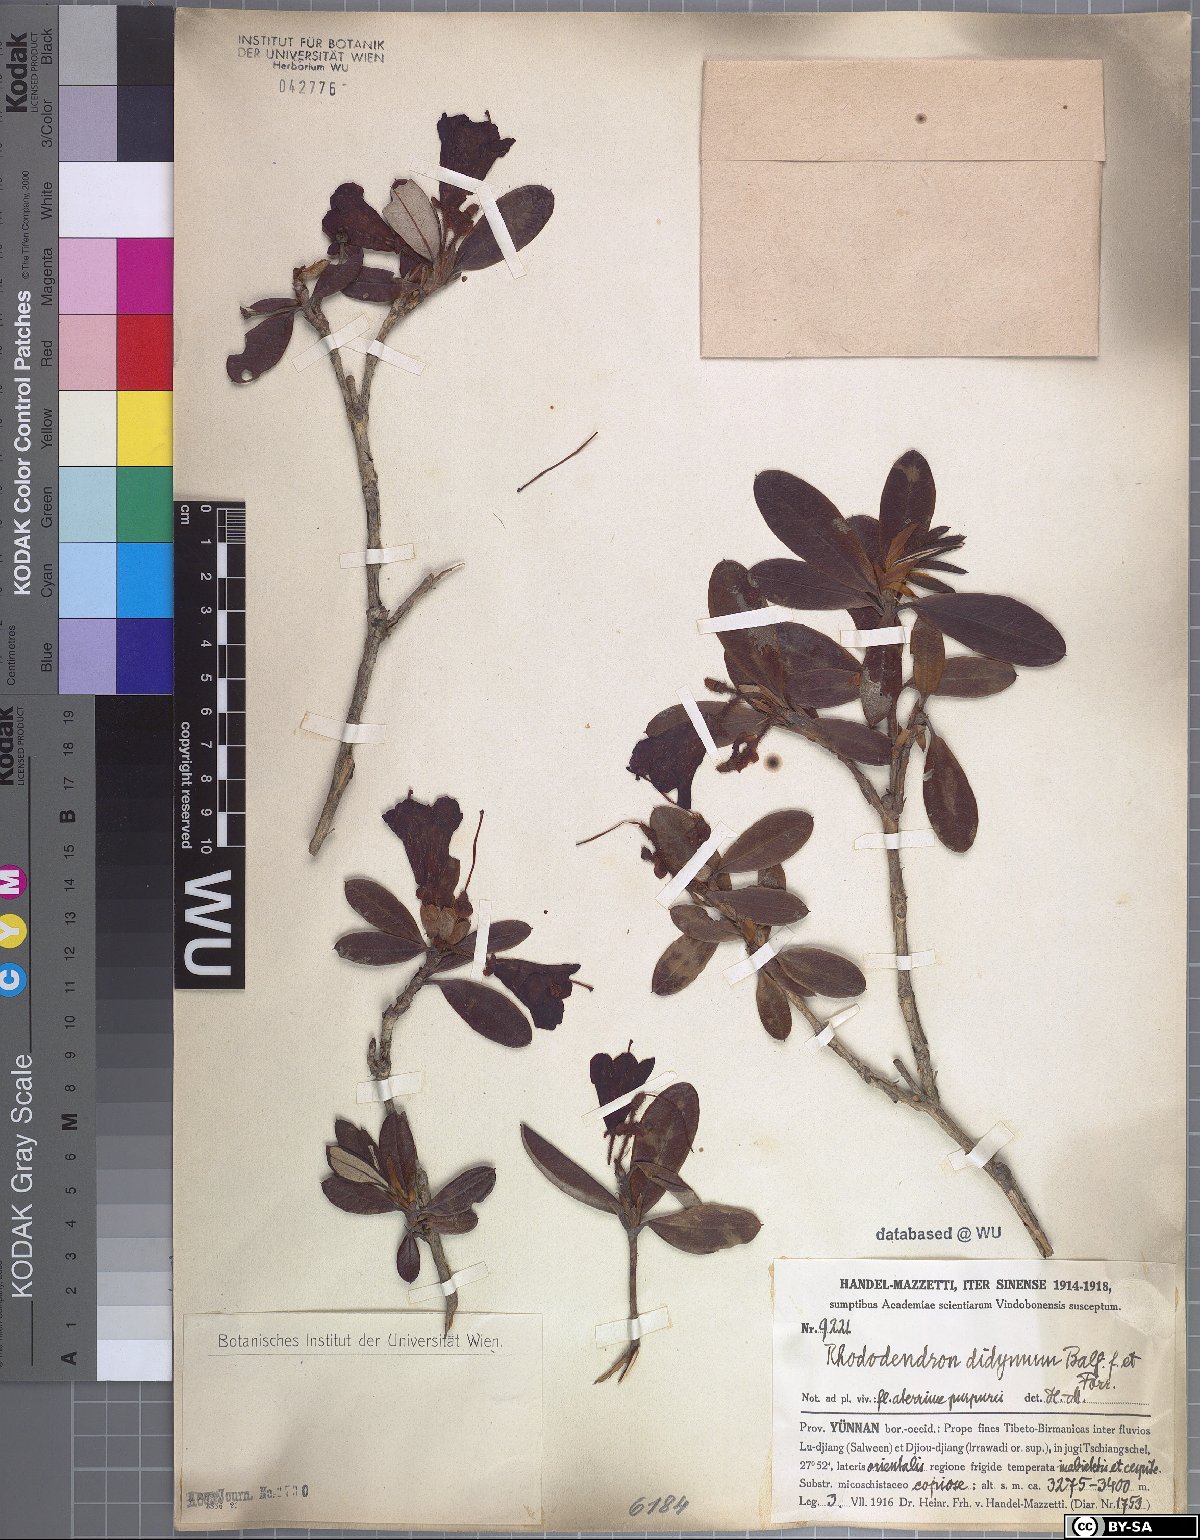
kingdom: Plantae
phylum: Tracheophyta
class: Magnoliopsida
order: Ericales
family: Ericaceae
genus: Rhododendron
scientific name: Rhododendron sanguineum
